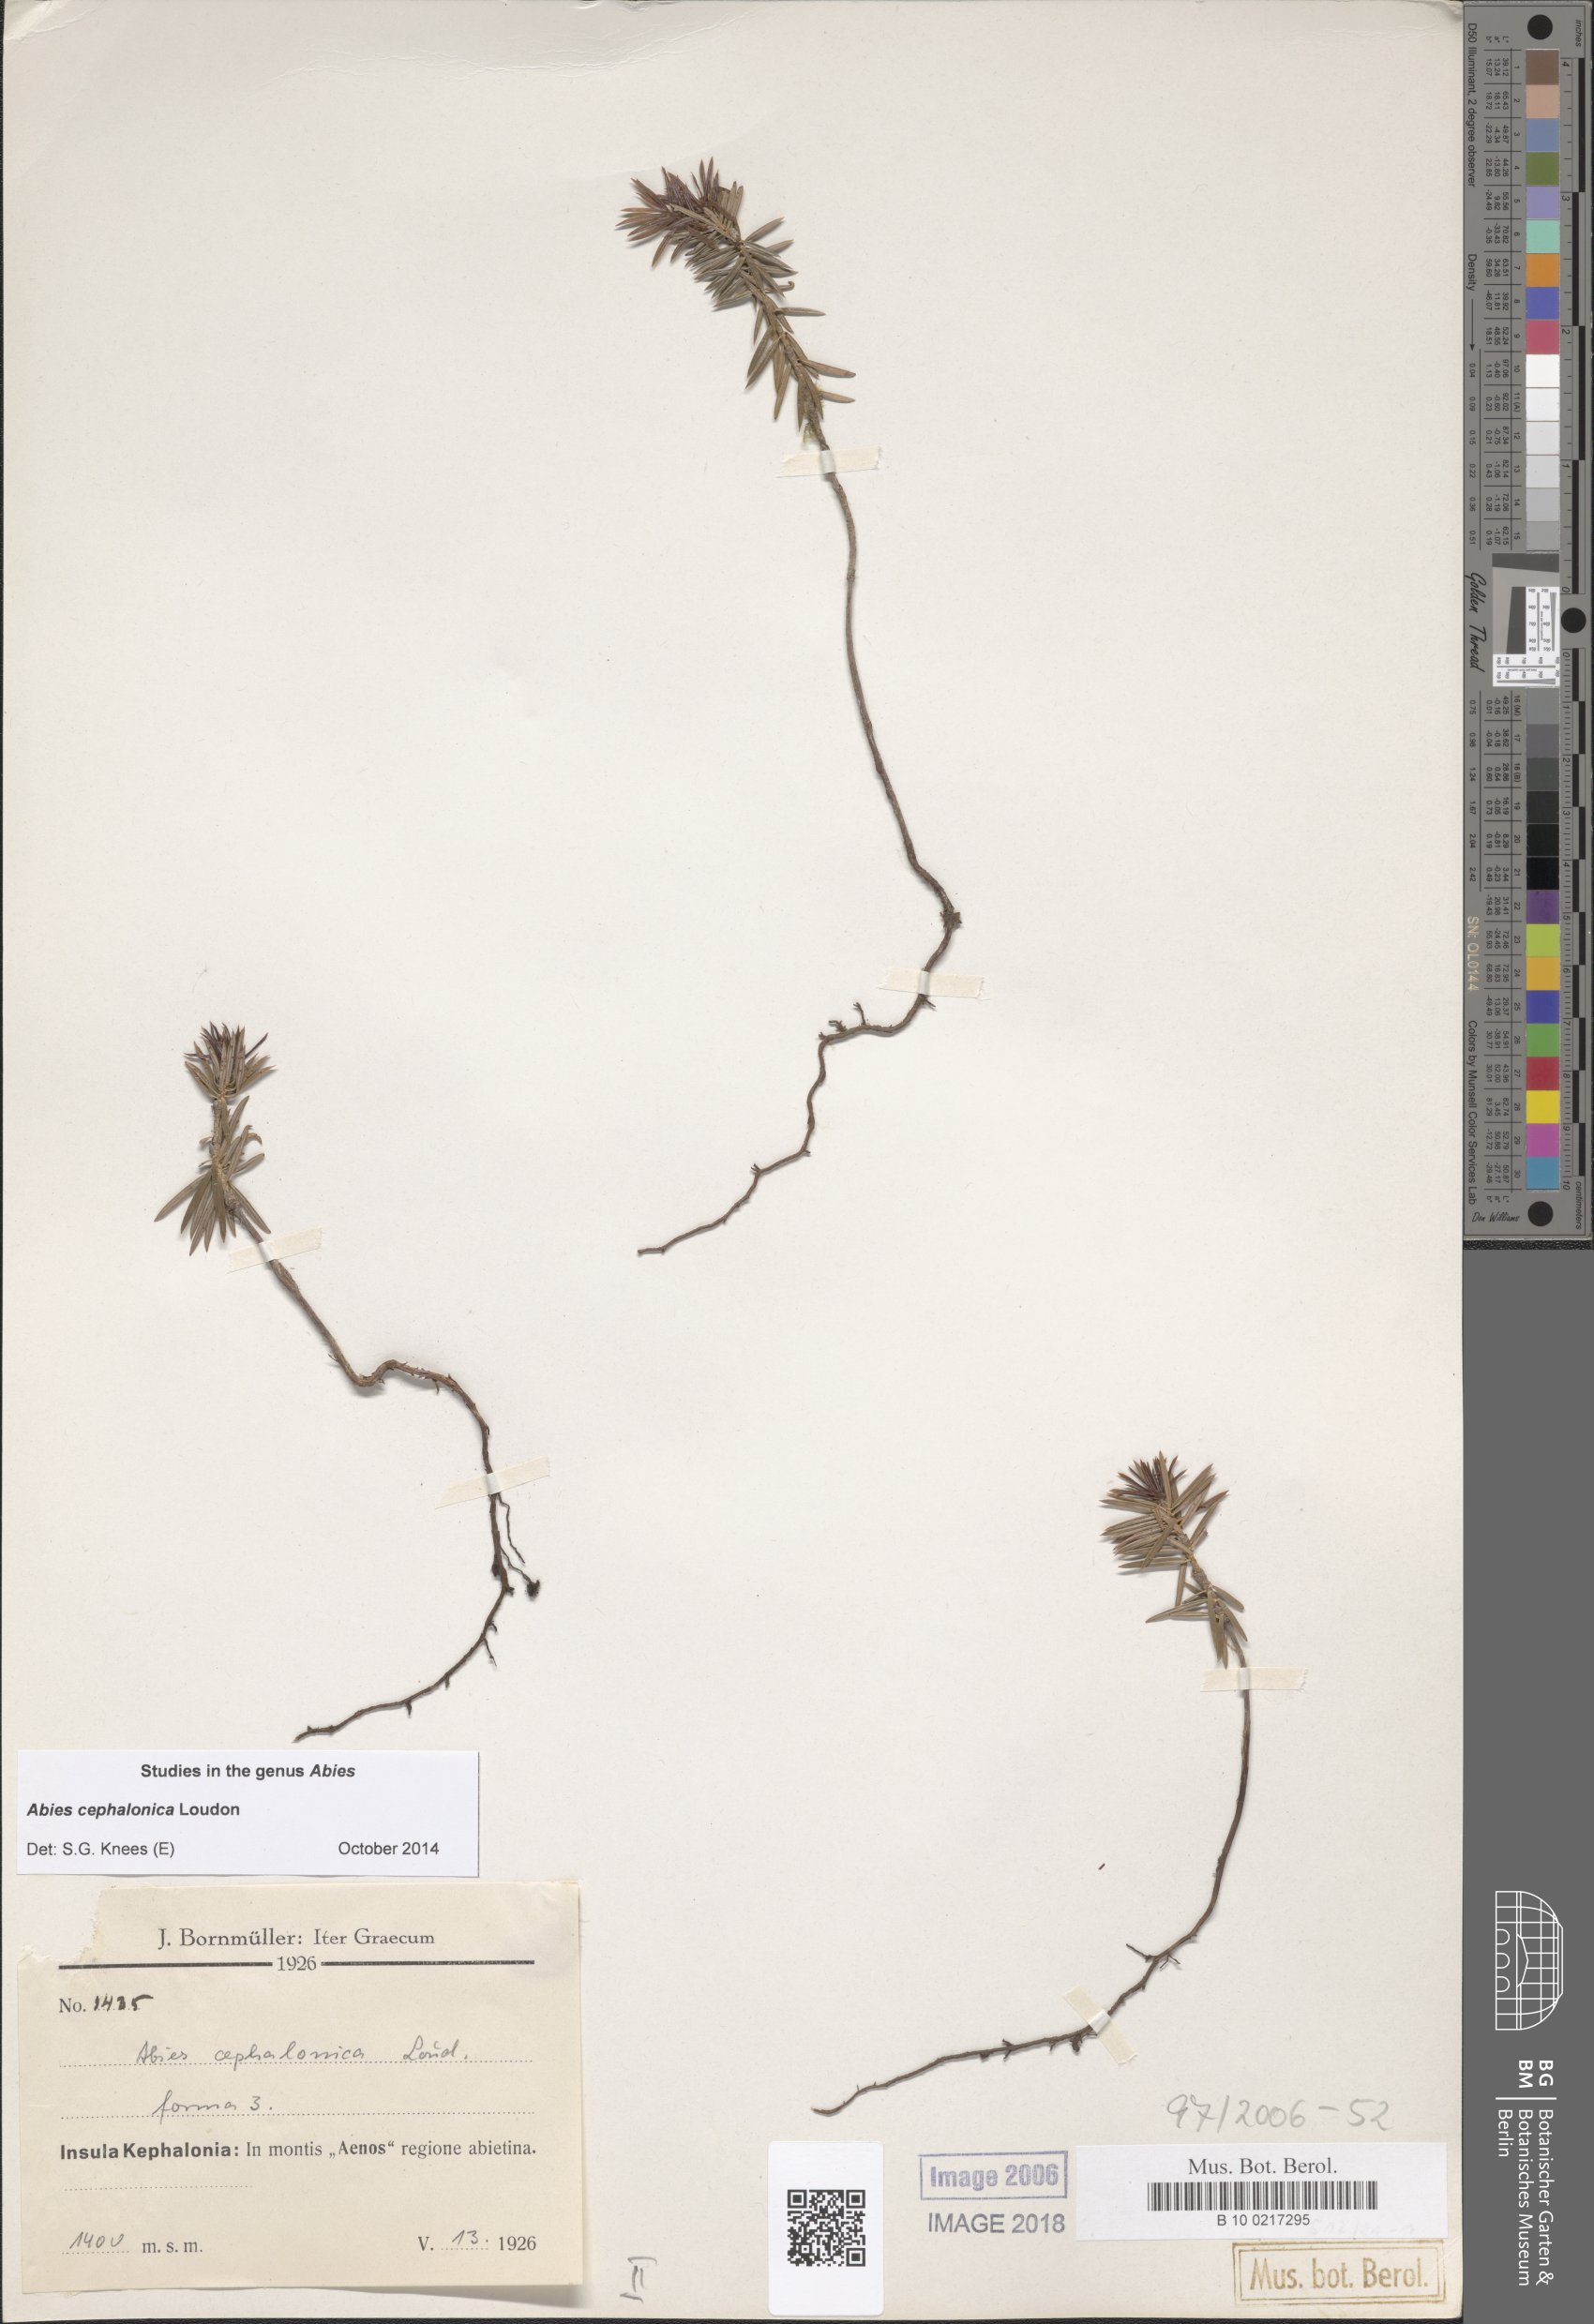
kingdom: Plantae
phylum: Tracheophyta
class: Pinopsida
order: Pinales
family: Pinaceae
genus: Abies
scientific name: Abies cephalonica
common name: Greek fir
